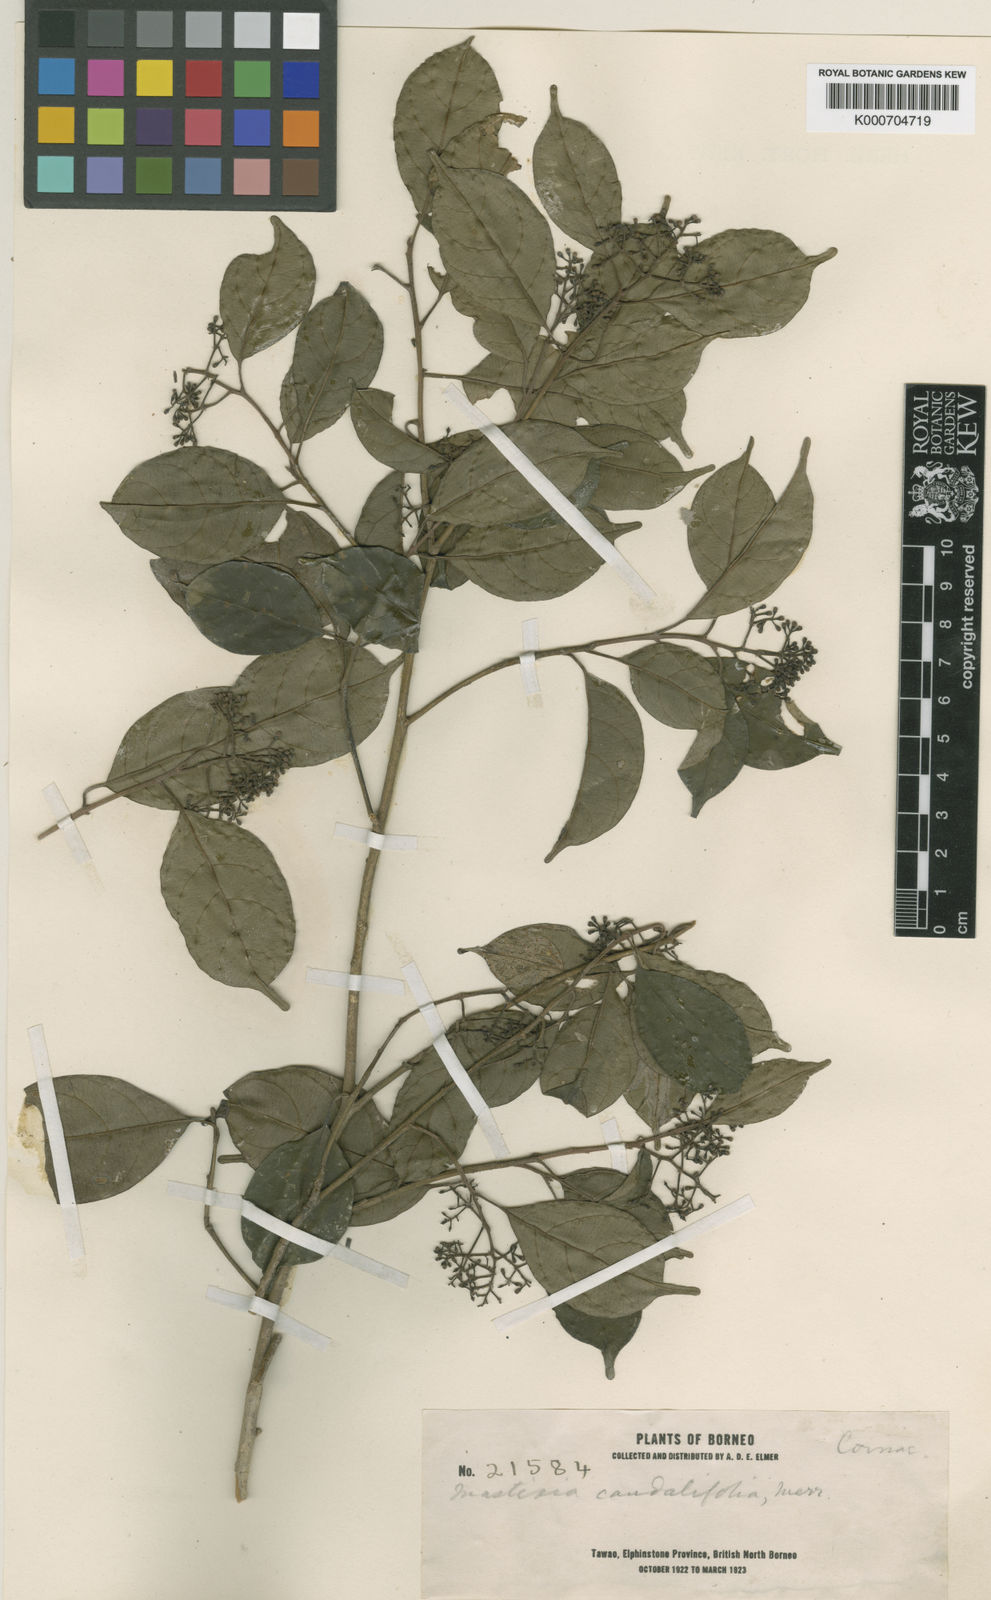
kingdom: Plantae
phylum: Tracheophyta
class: Magnoliopsida
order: Cornales
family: Nyssaceae
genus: Mastixia
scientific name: Mastixia rostrata
